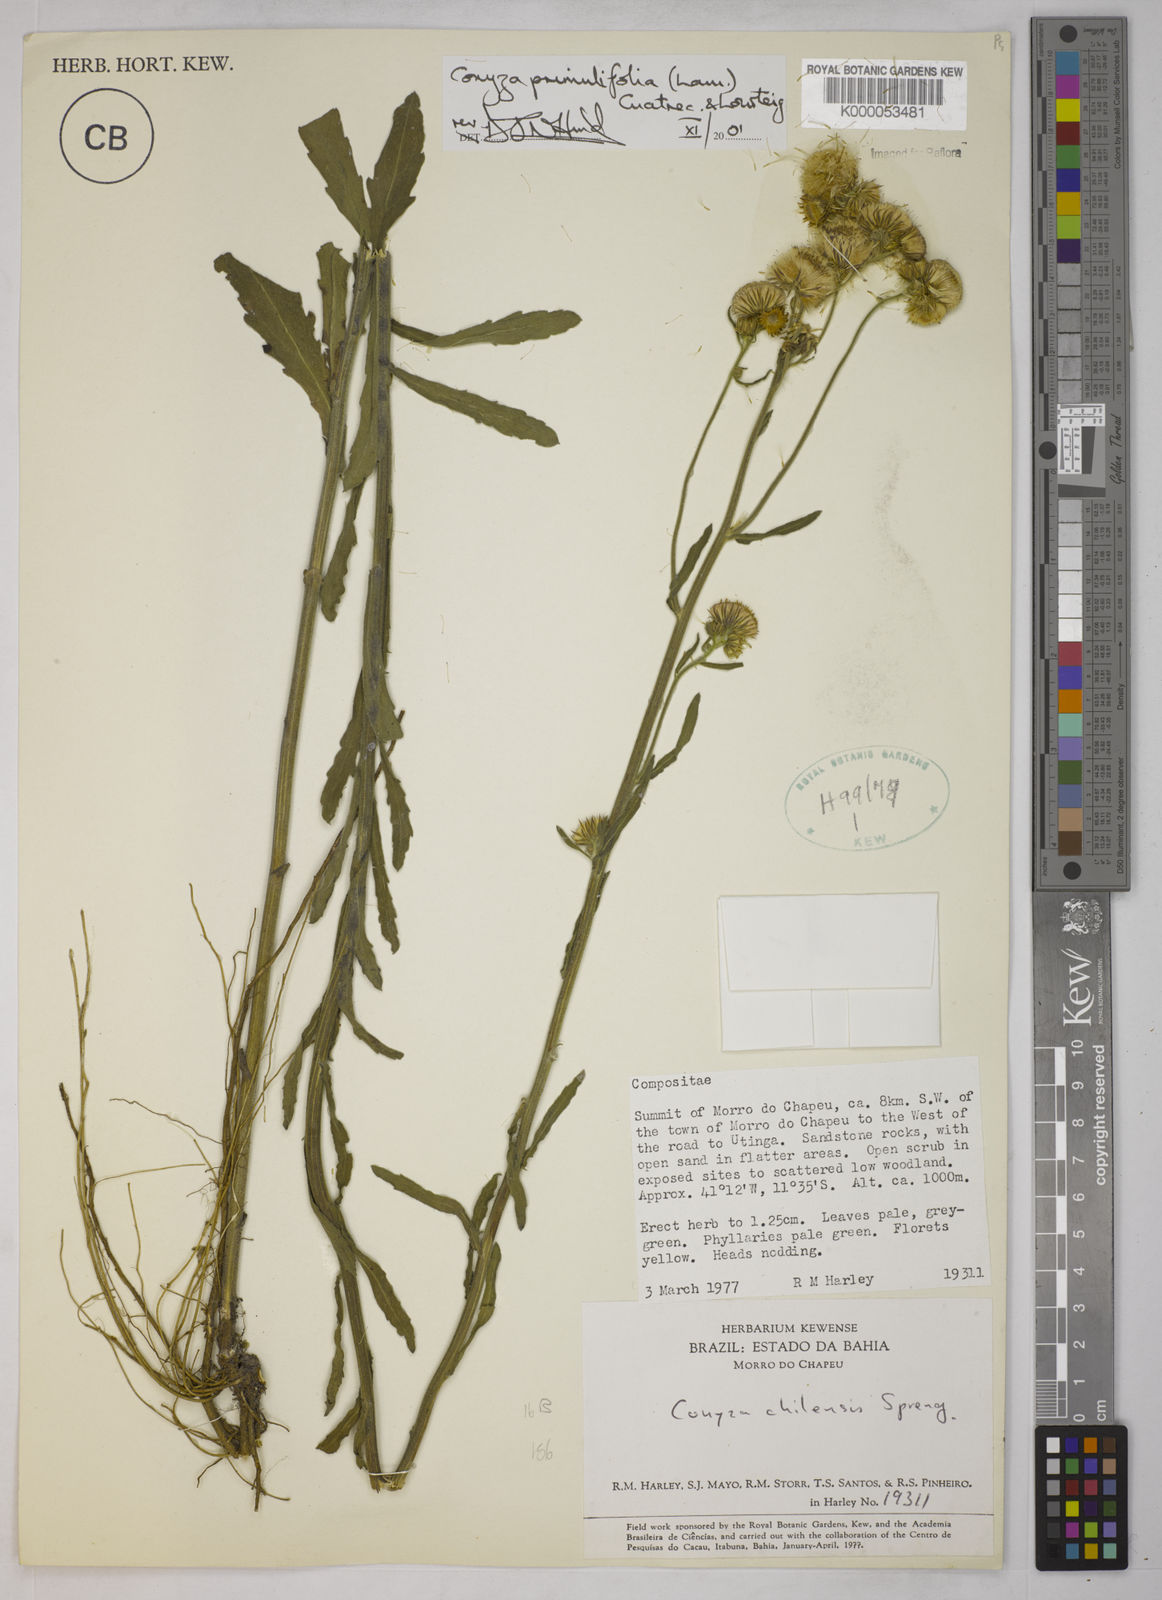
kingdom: Plantae
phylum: Tracheophyta
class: Magnoliopsida
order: Asterales
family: Asteraceae
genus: Erigeron
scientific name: Erigeron primulifolius
